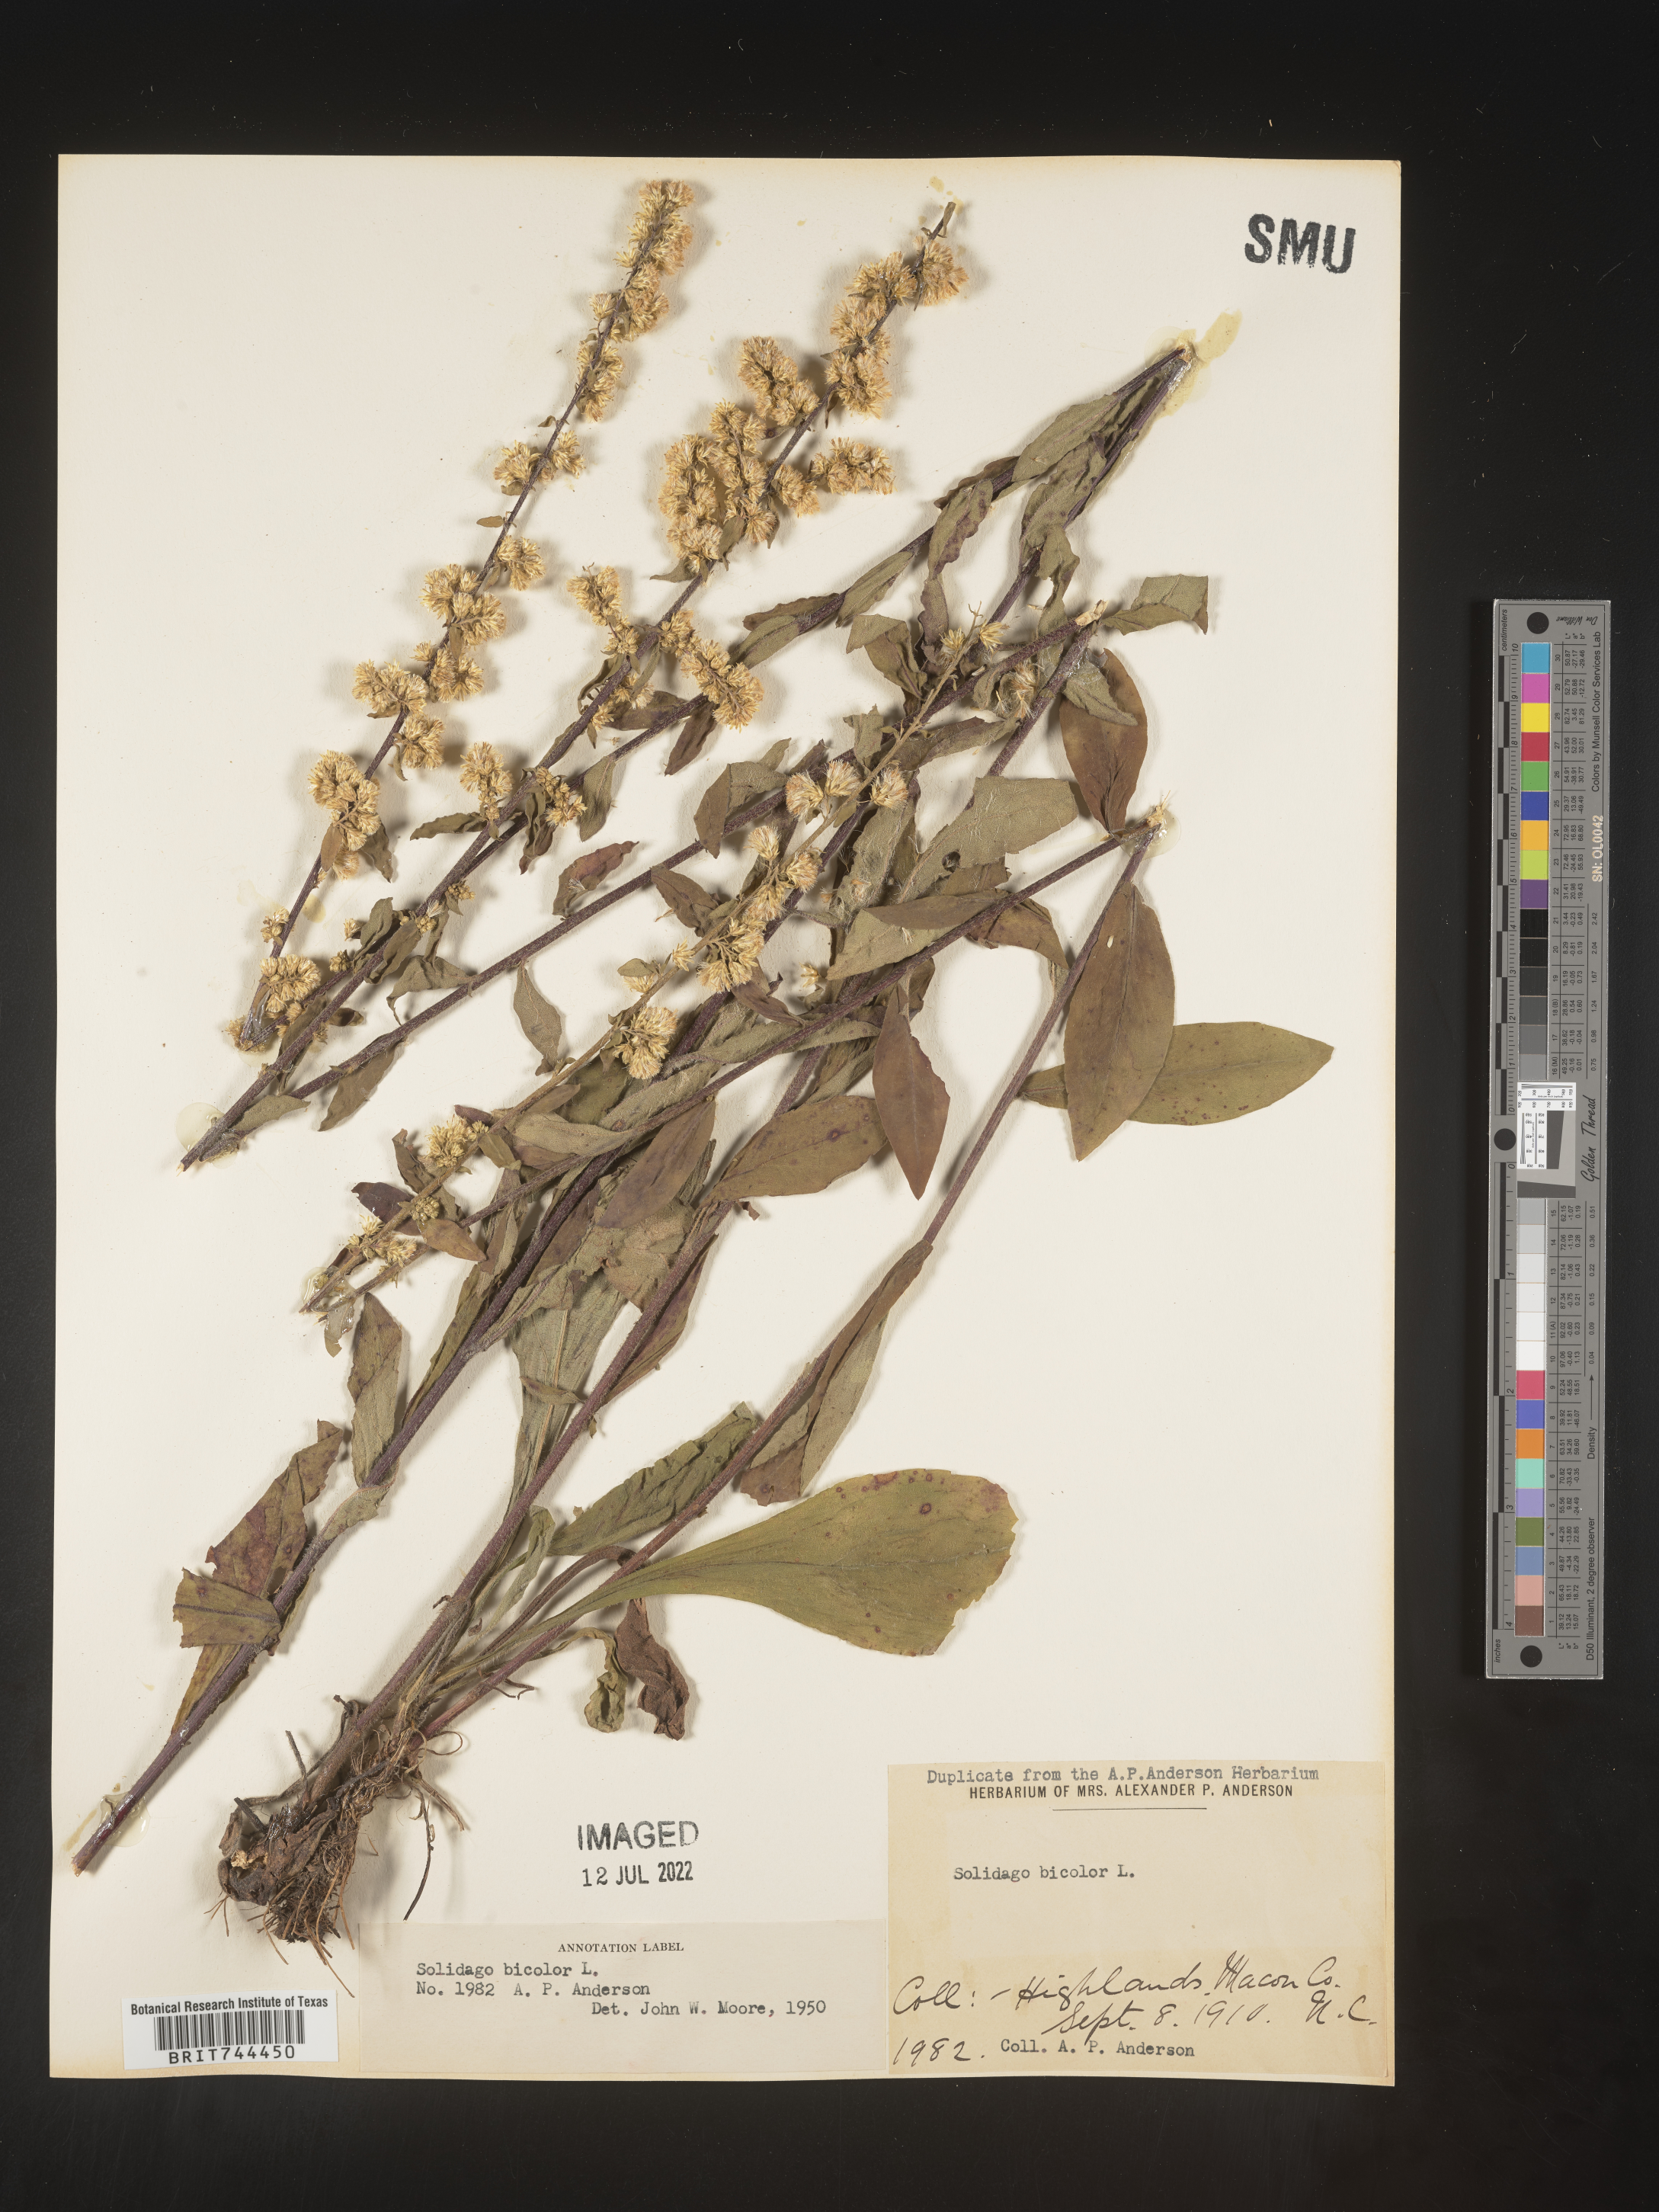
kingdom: Plantae
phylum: Tracheophyta
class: Magnoliopsida
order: Asterales
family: Asteraceae
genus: Solidago
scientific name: Solidago bicolor
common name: Silverrod
